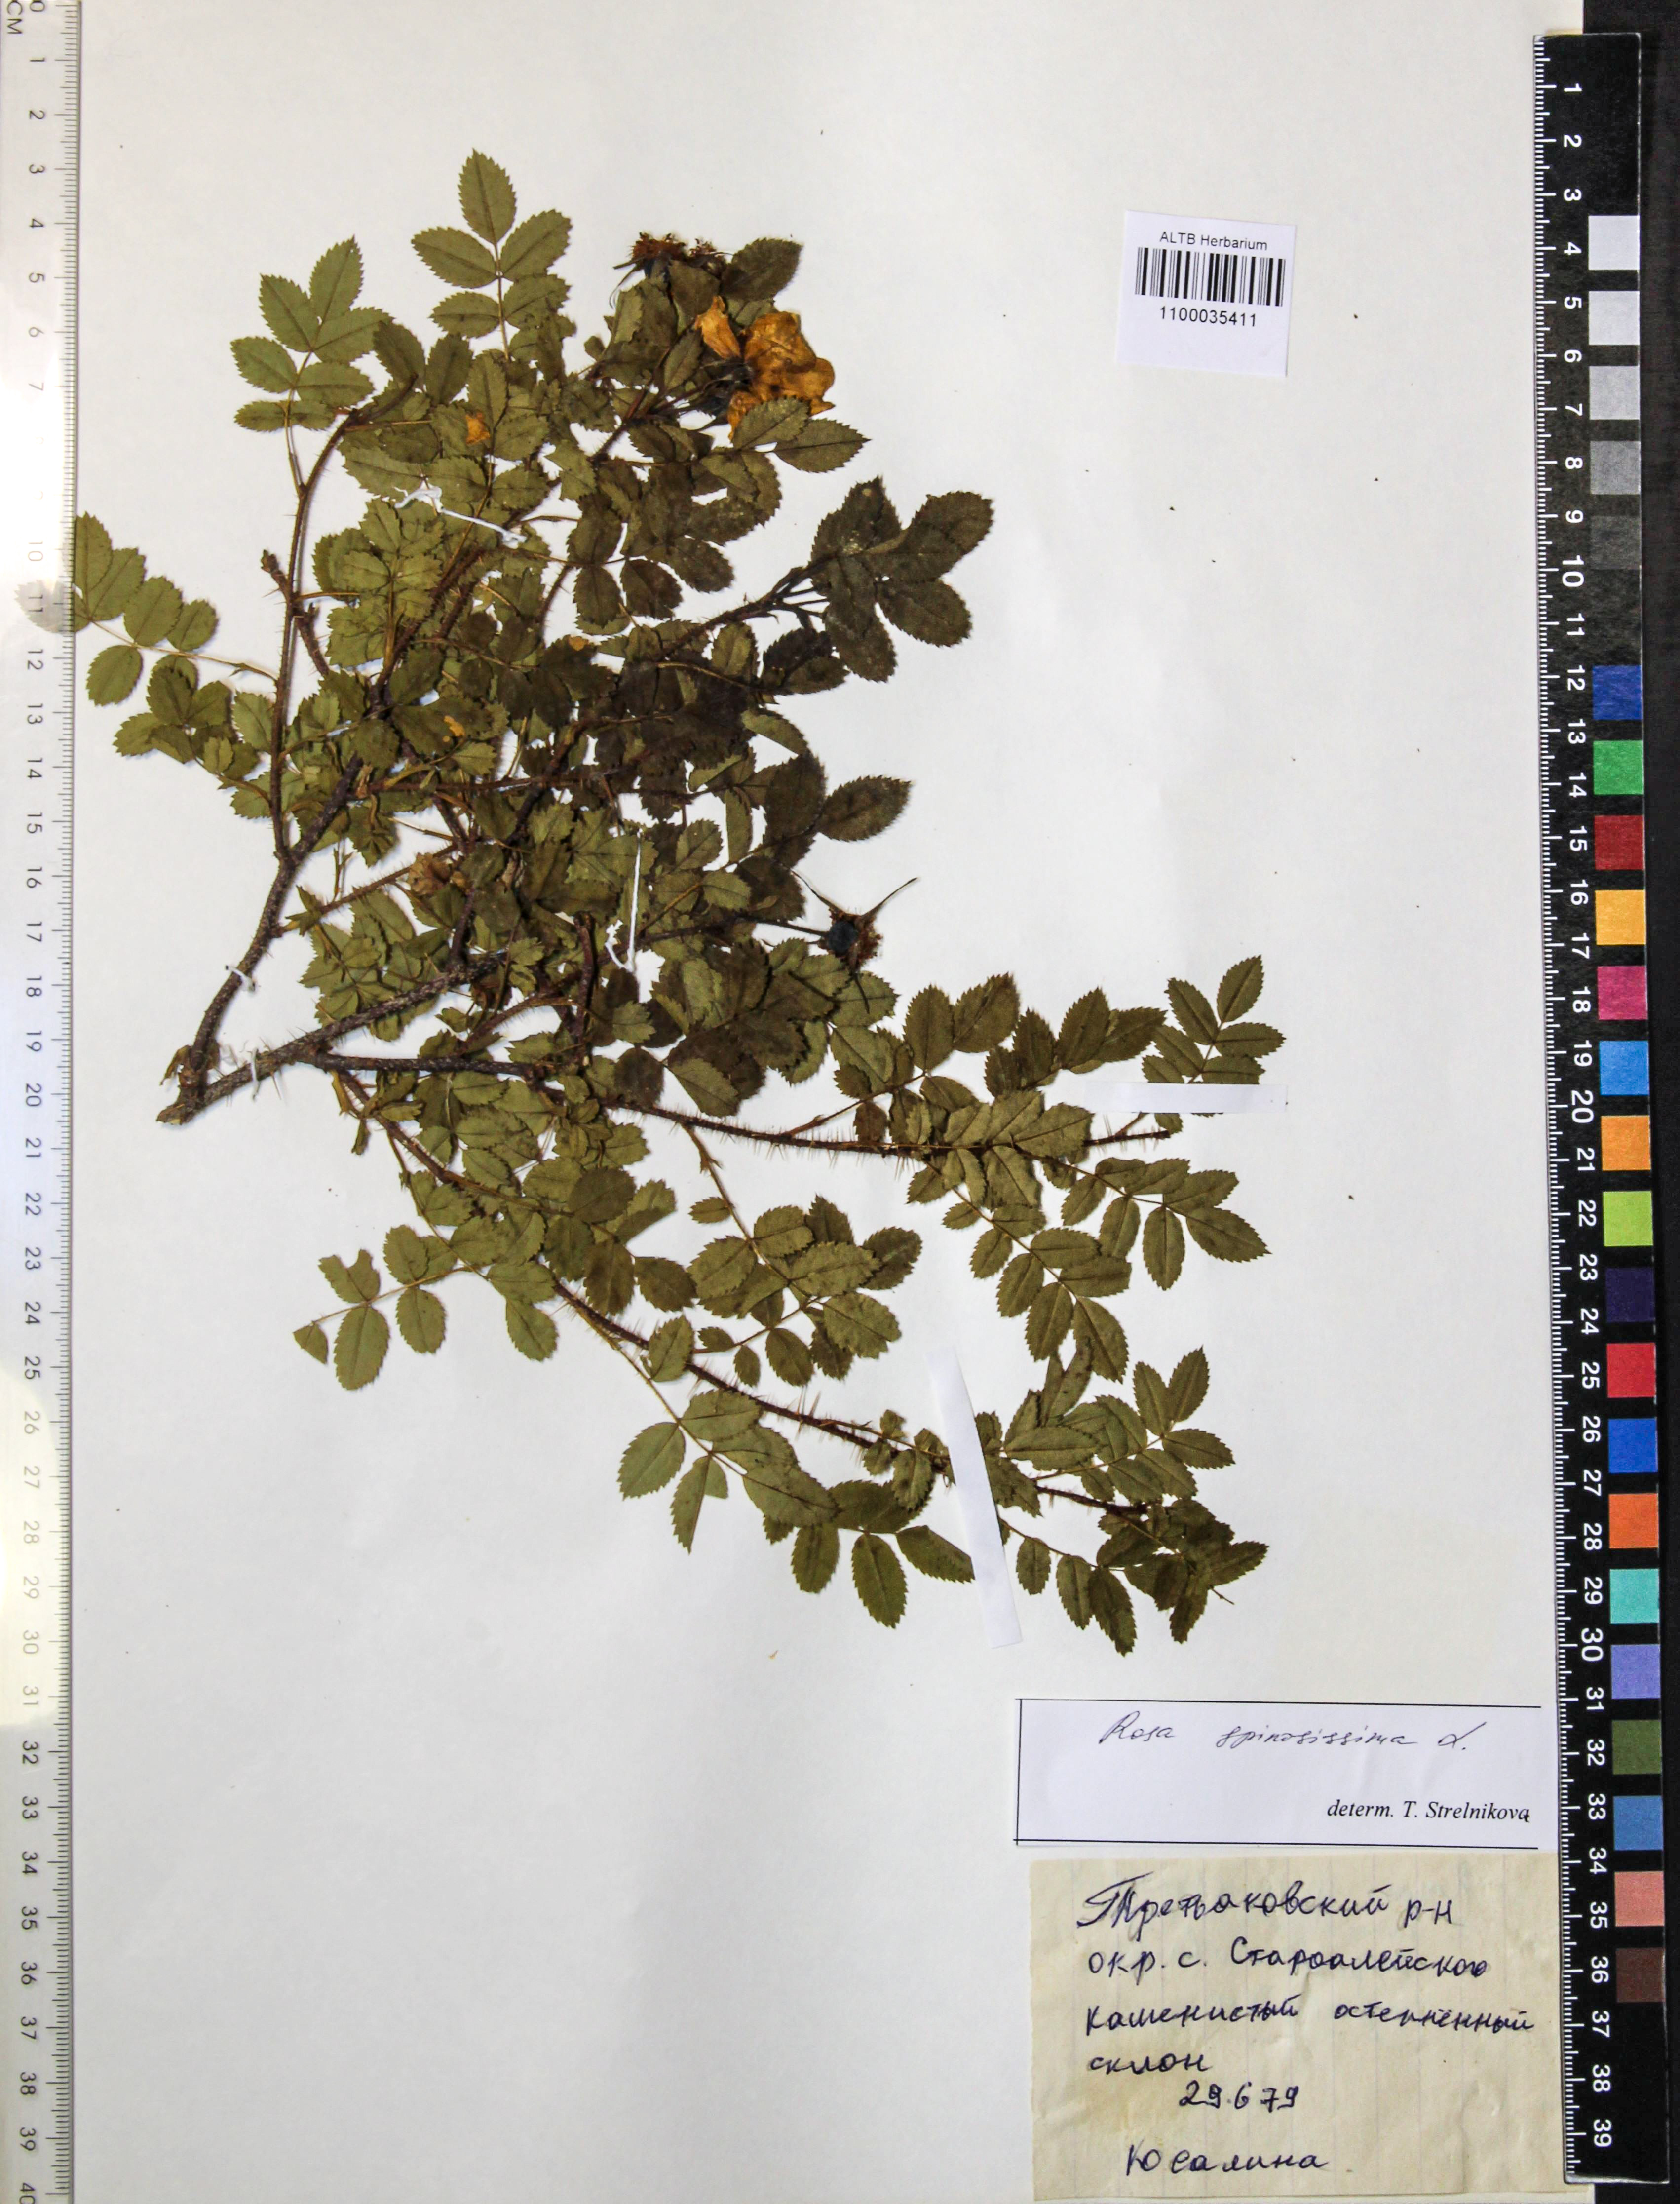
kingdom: Plantae
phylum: Tracheophyta
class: Magnoliopsida
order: Rosales
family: Rosaceae
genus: Rosa
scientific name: Rosa spinosissima
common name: Burnet rose
